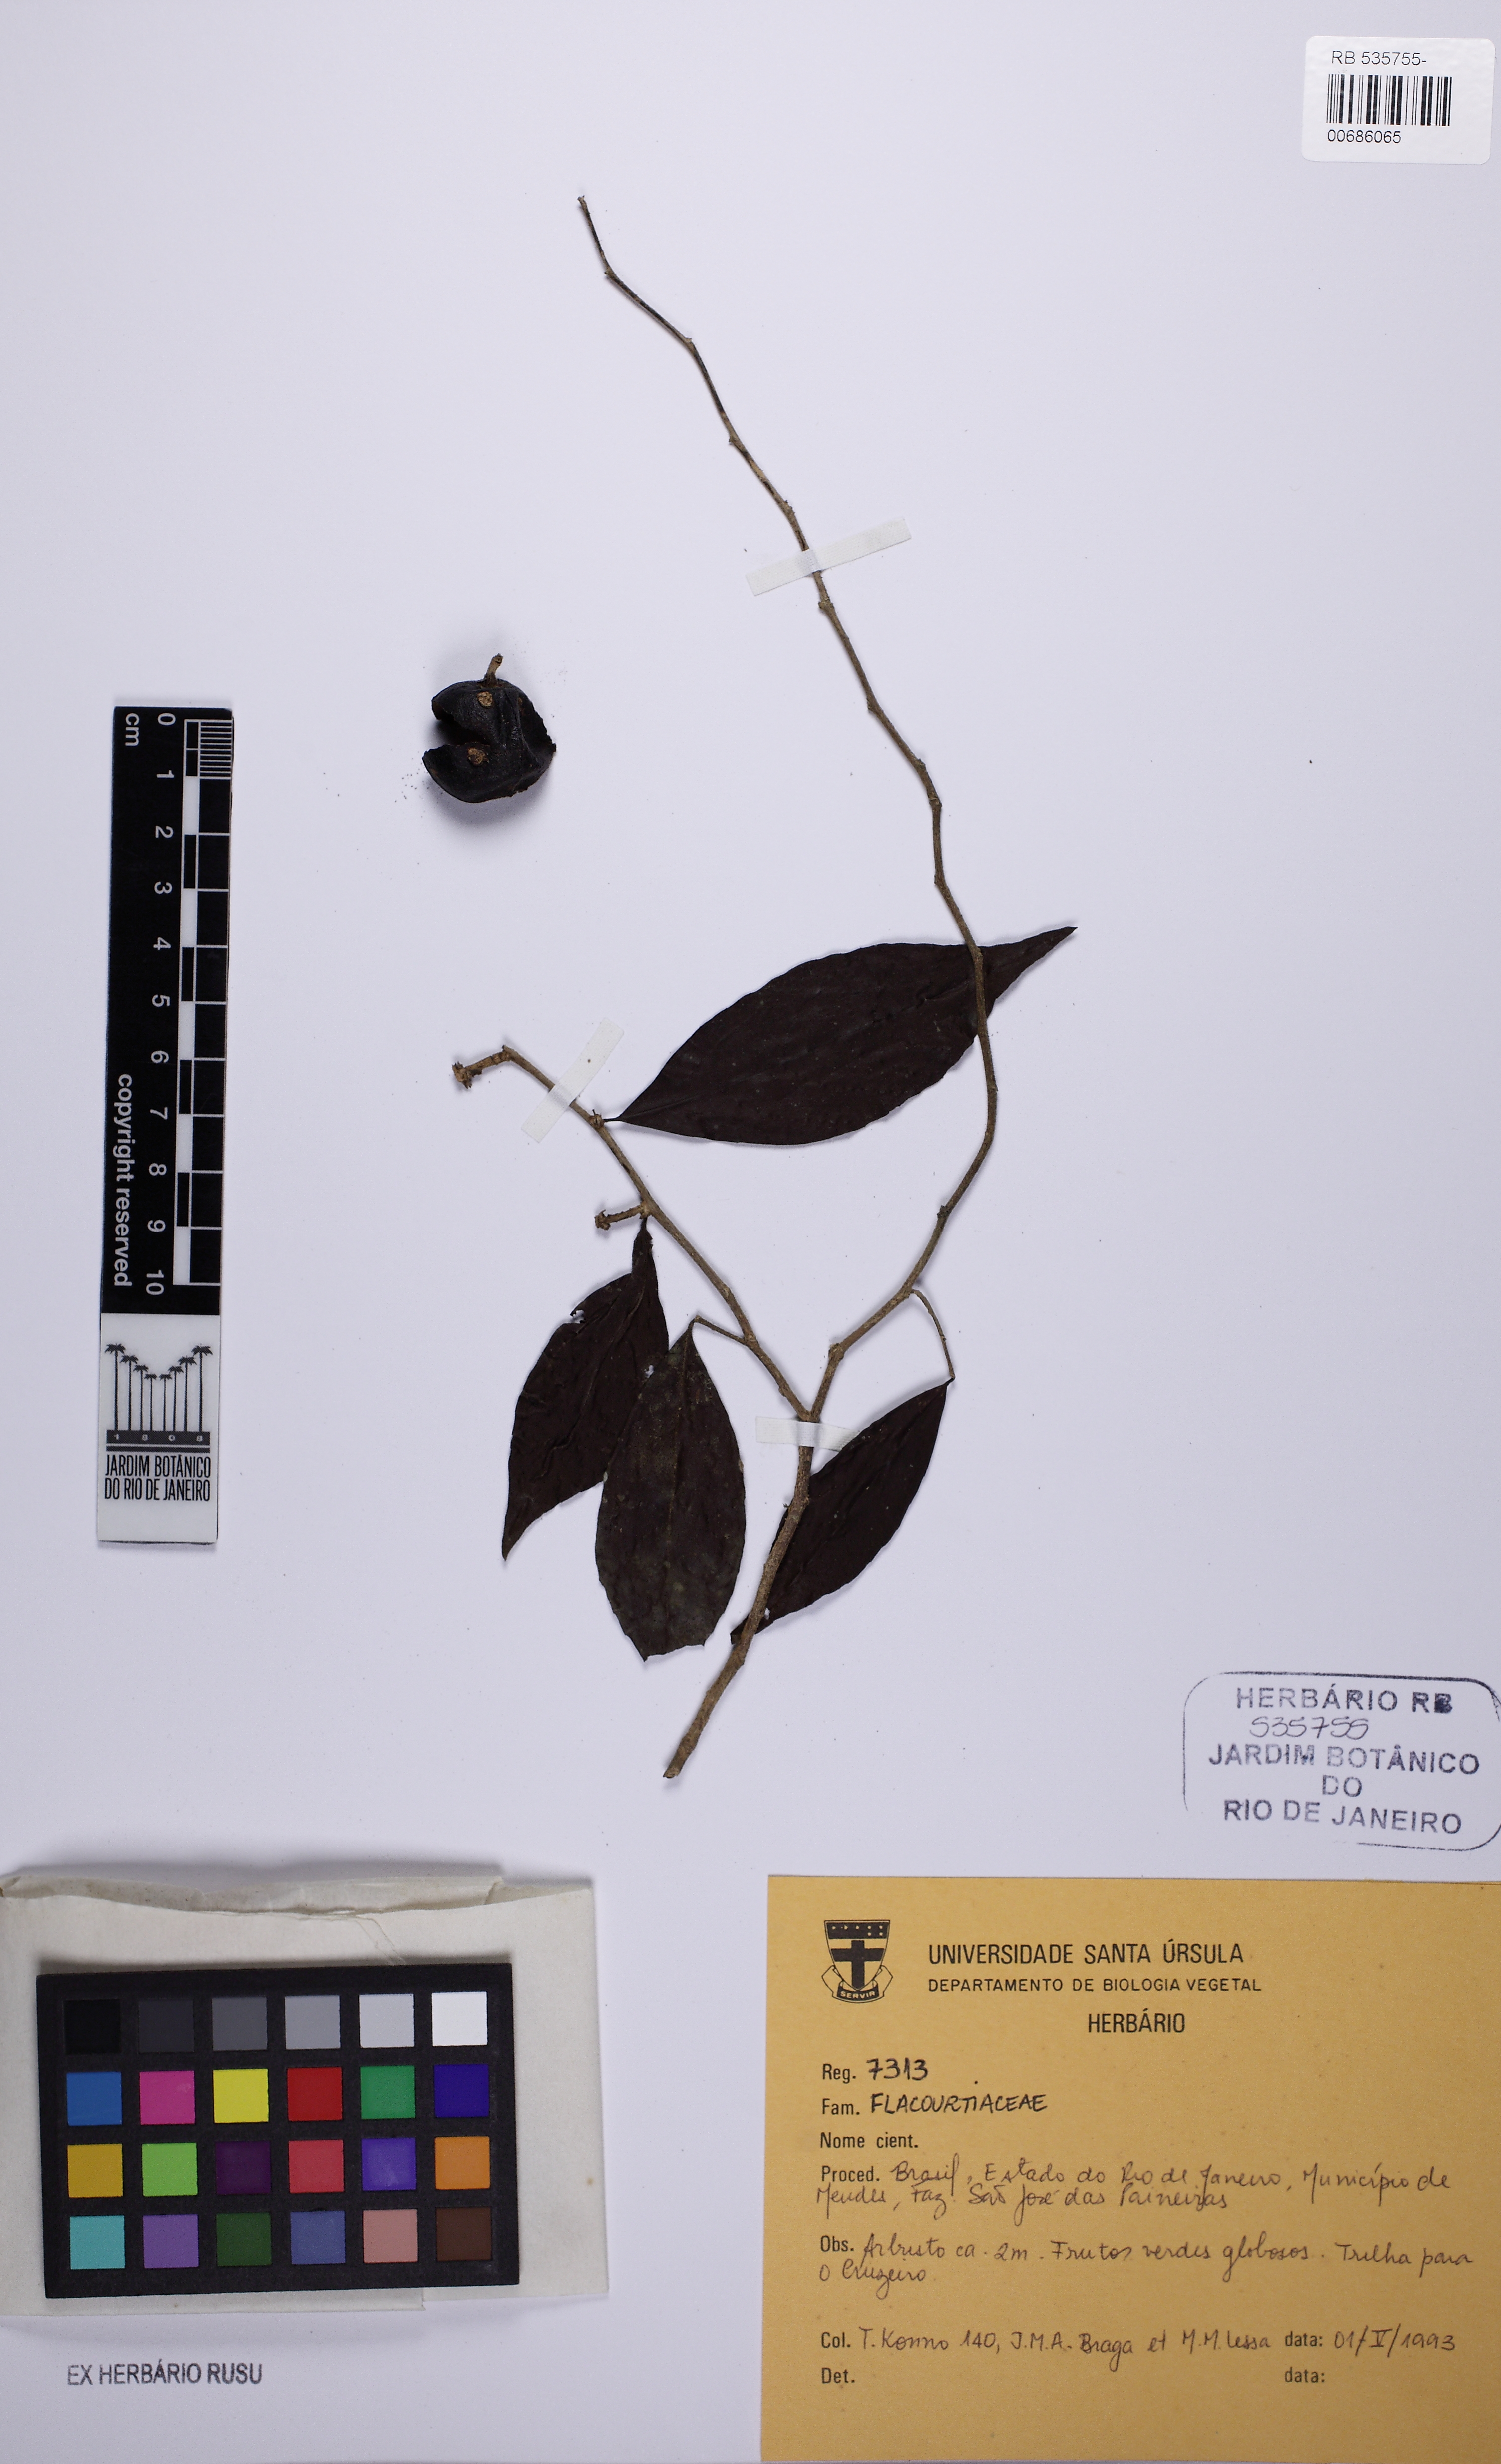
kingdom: Plantae
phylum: Tracheophyta
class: Magnoliopsida
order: Malpighiales
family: Flacourtiaceae
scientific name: Flacourtiaceae
